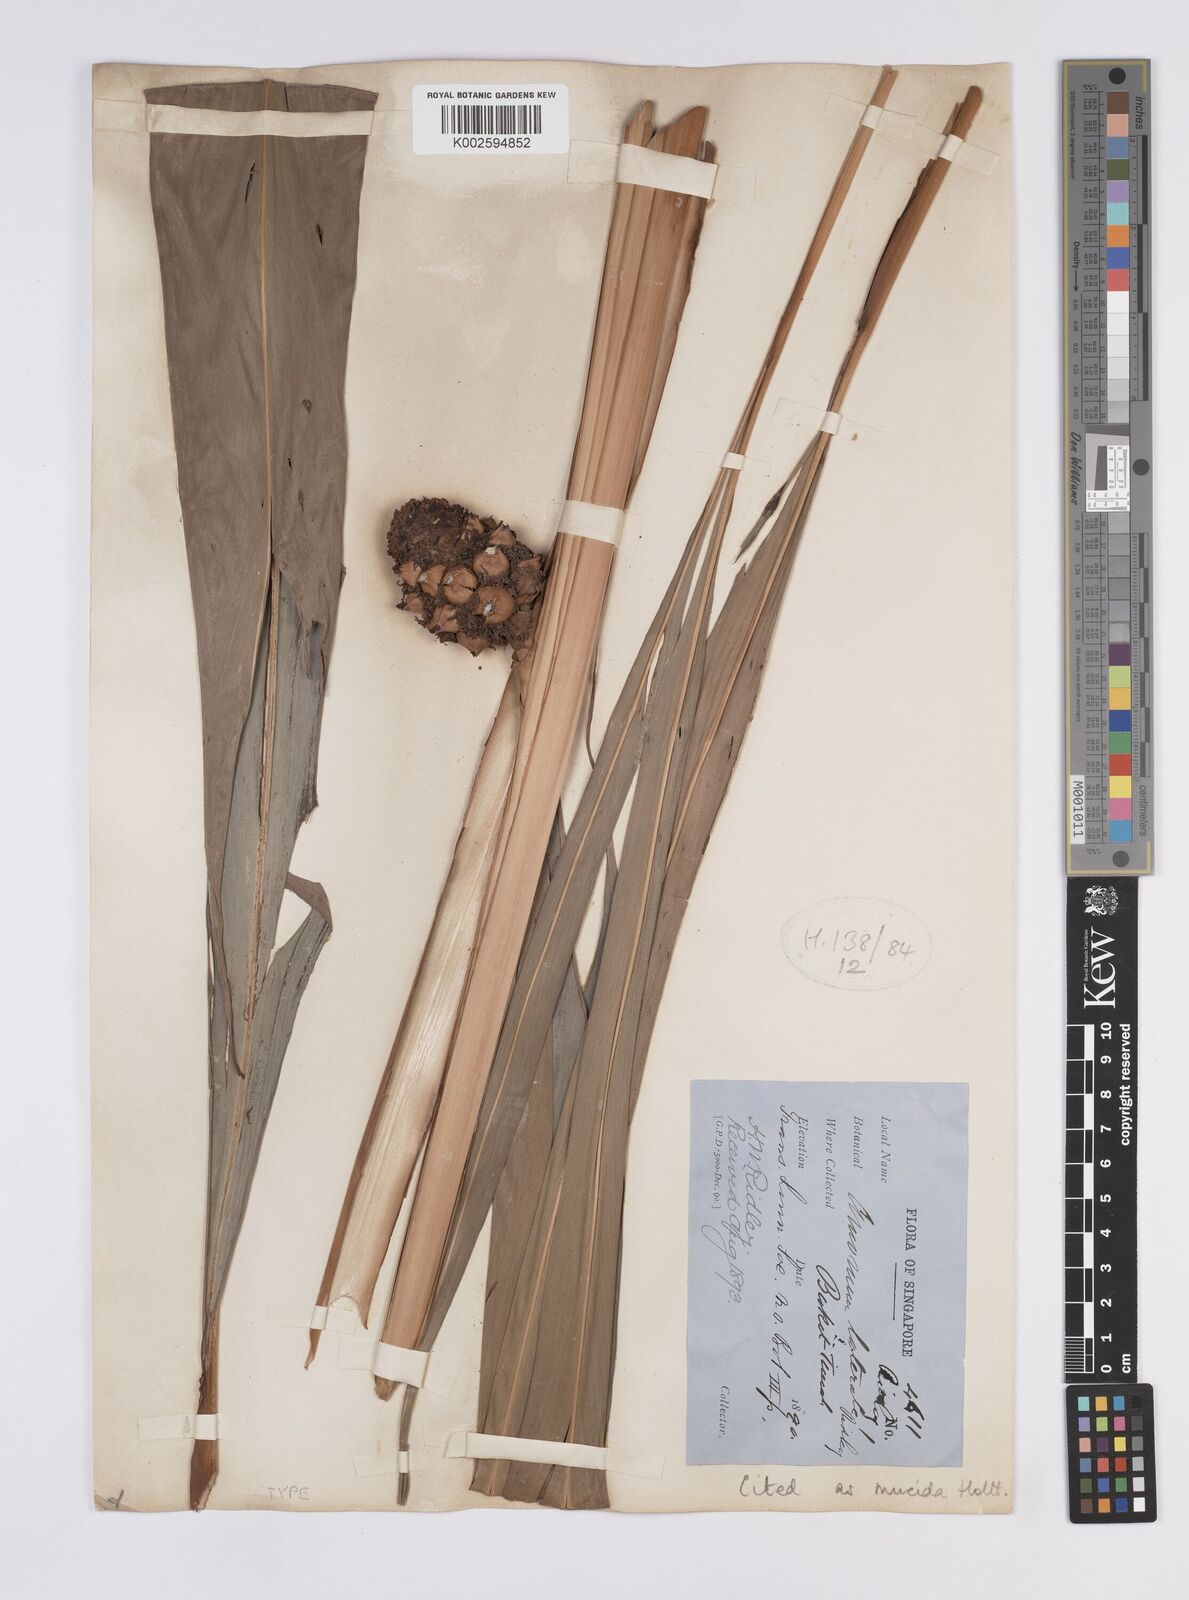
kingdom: Plantae
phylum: Tracheophyta
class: Liliopsida
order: Zingiberales
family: Zingiberaceae
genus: Plagiostachys
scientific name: Plagiostachys mucida
